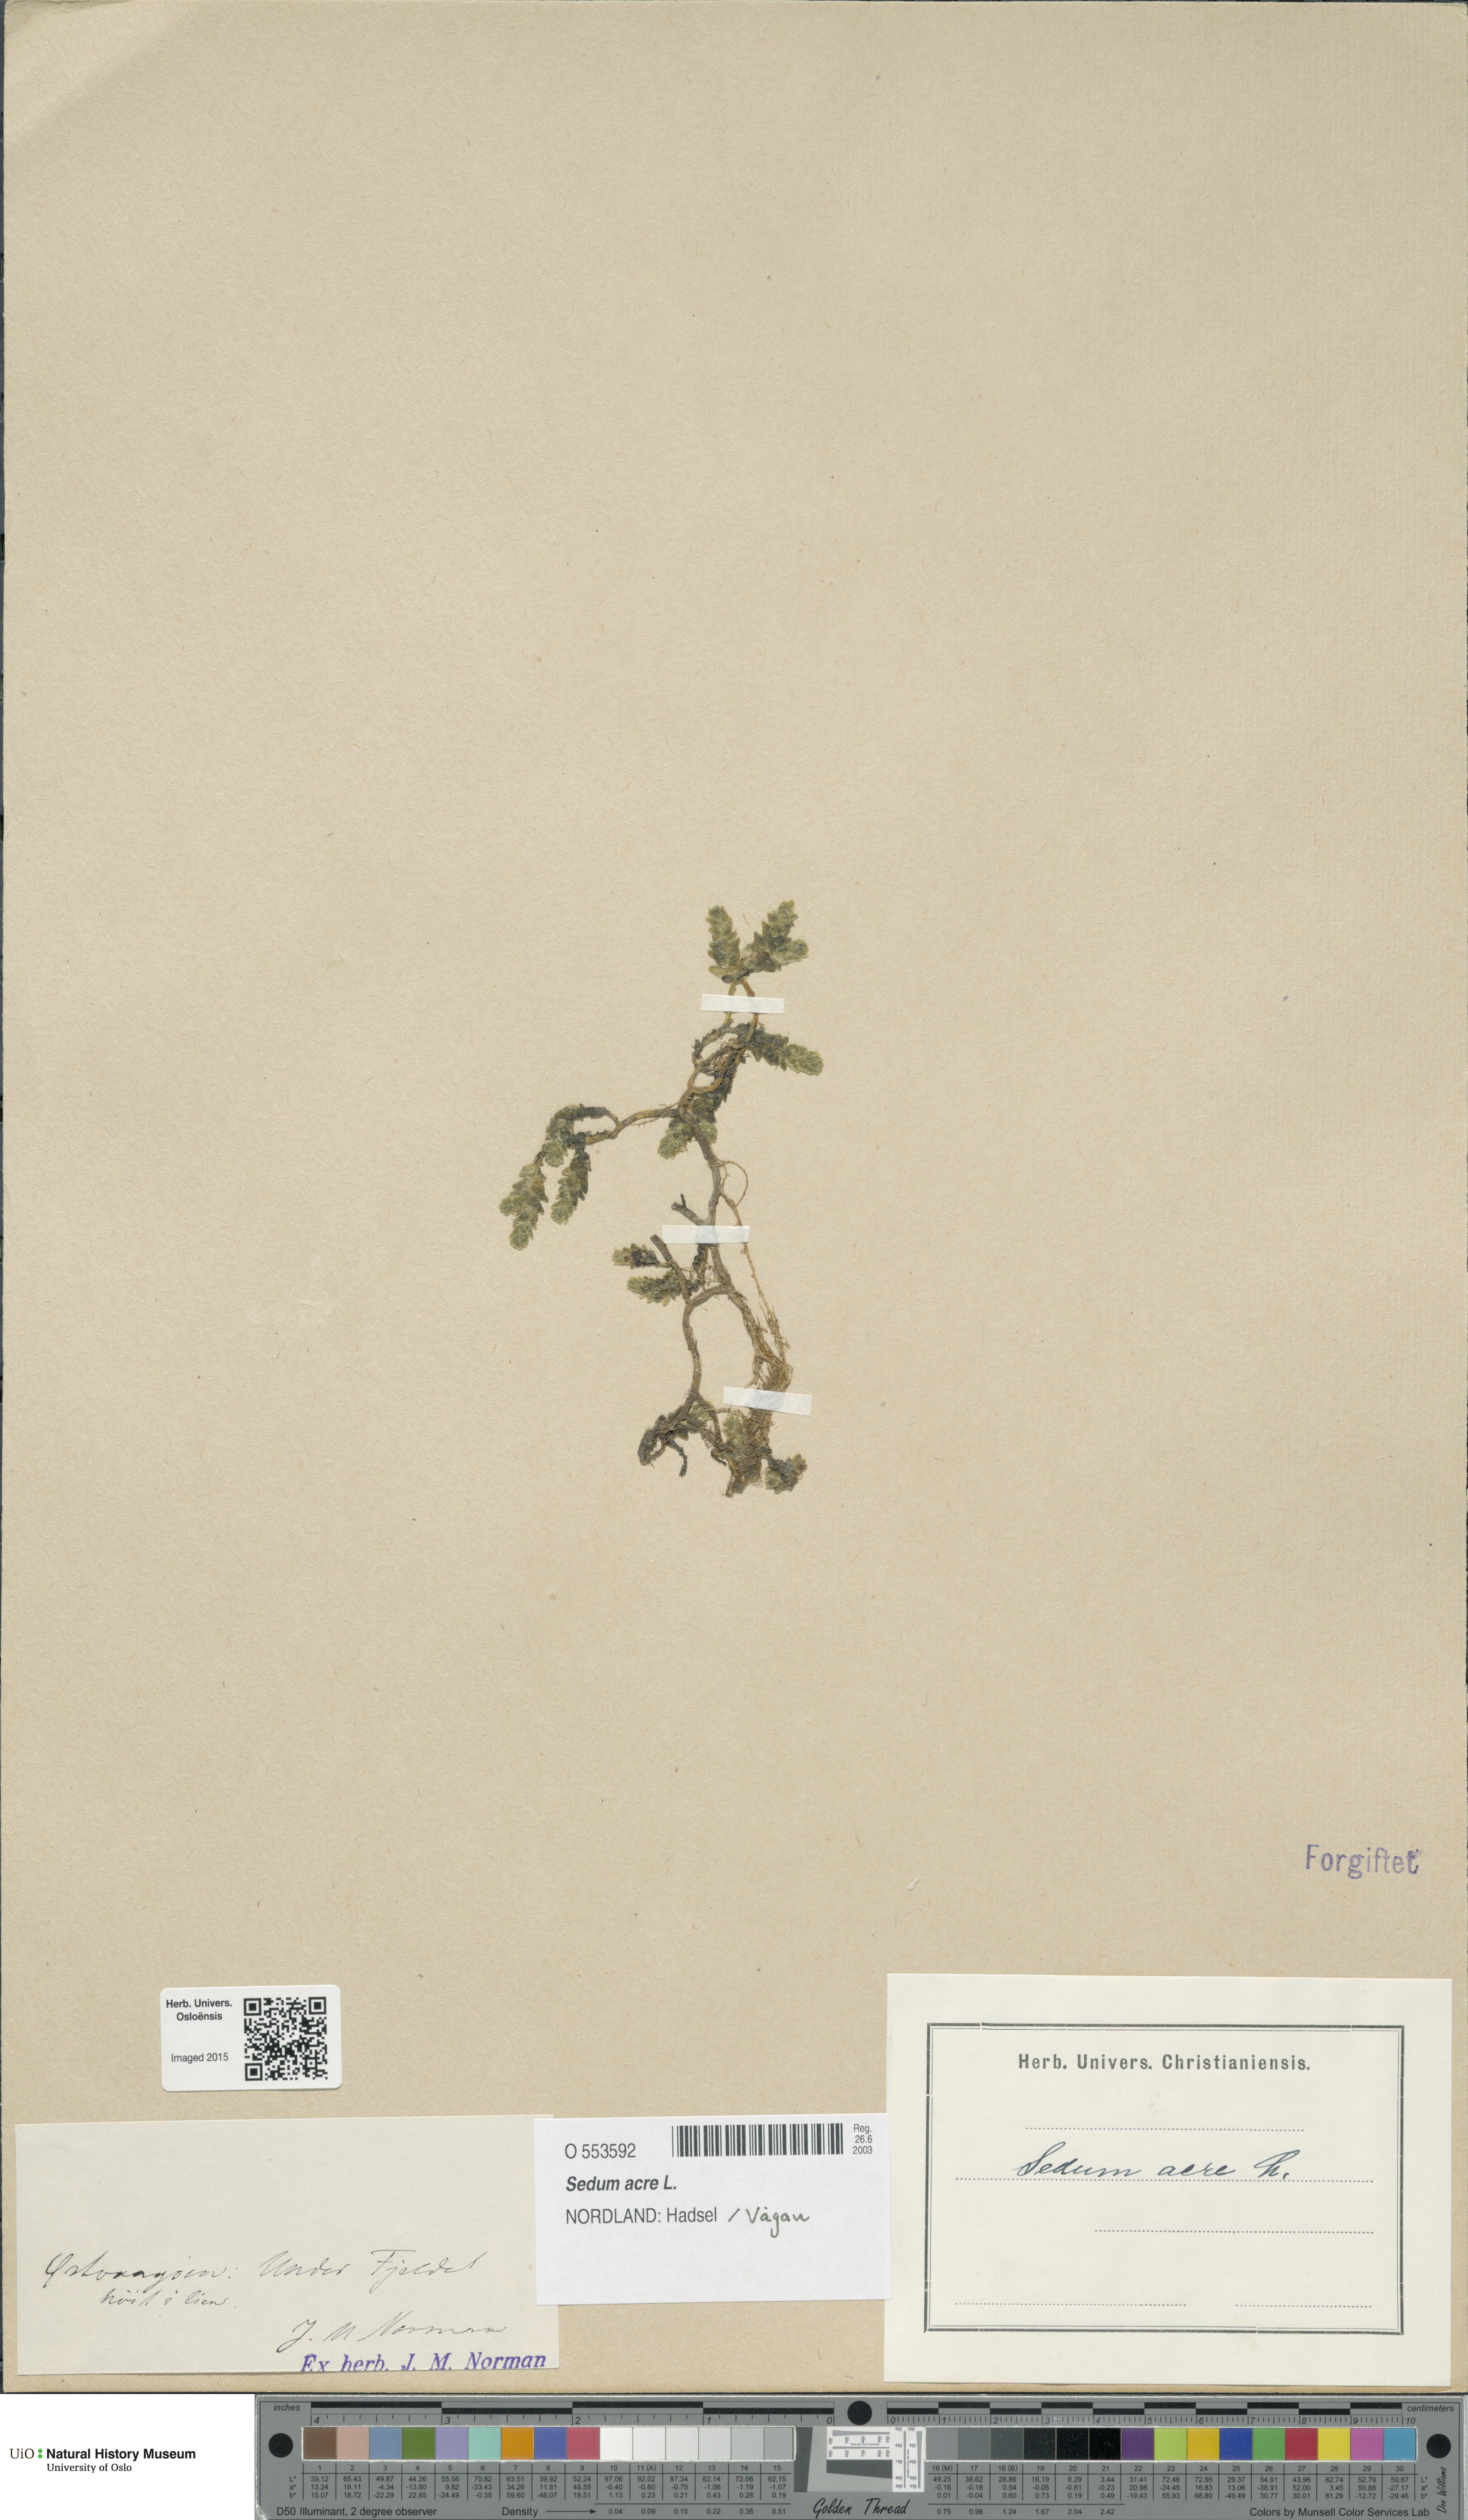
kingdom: Plantae
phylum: Tracheophyta
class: Magnoliopsida
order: Saxifragales
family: Crassulaceae
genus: Sedum
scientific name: Sedum acre
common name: Biting stonecrop
